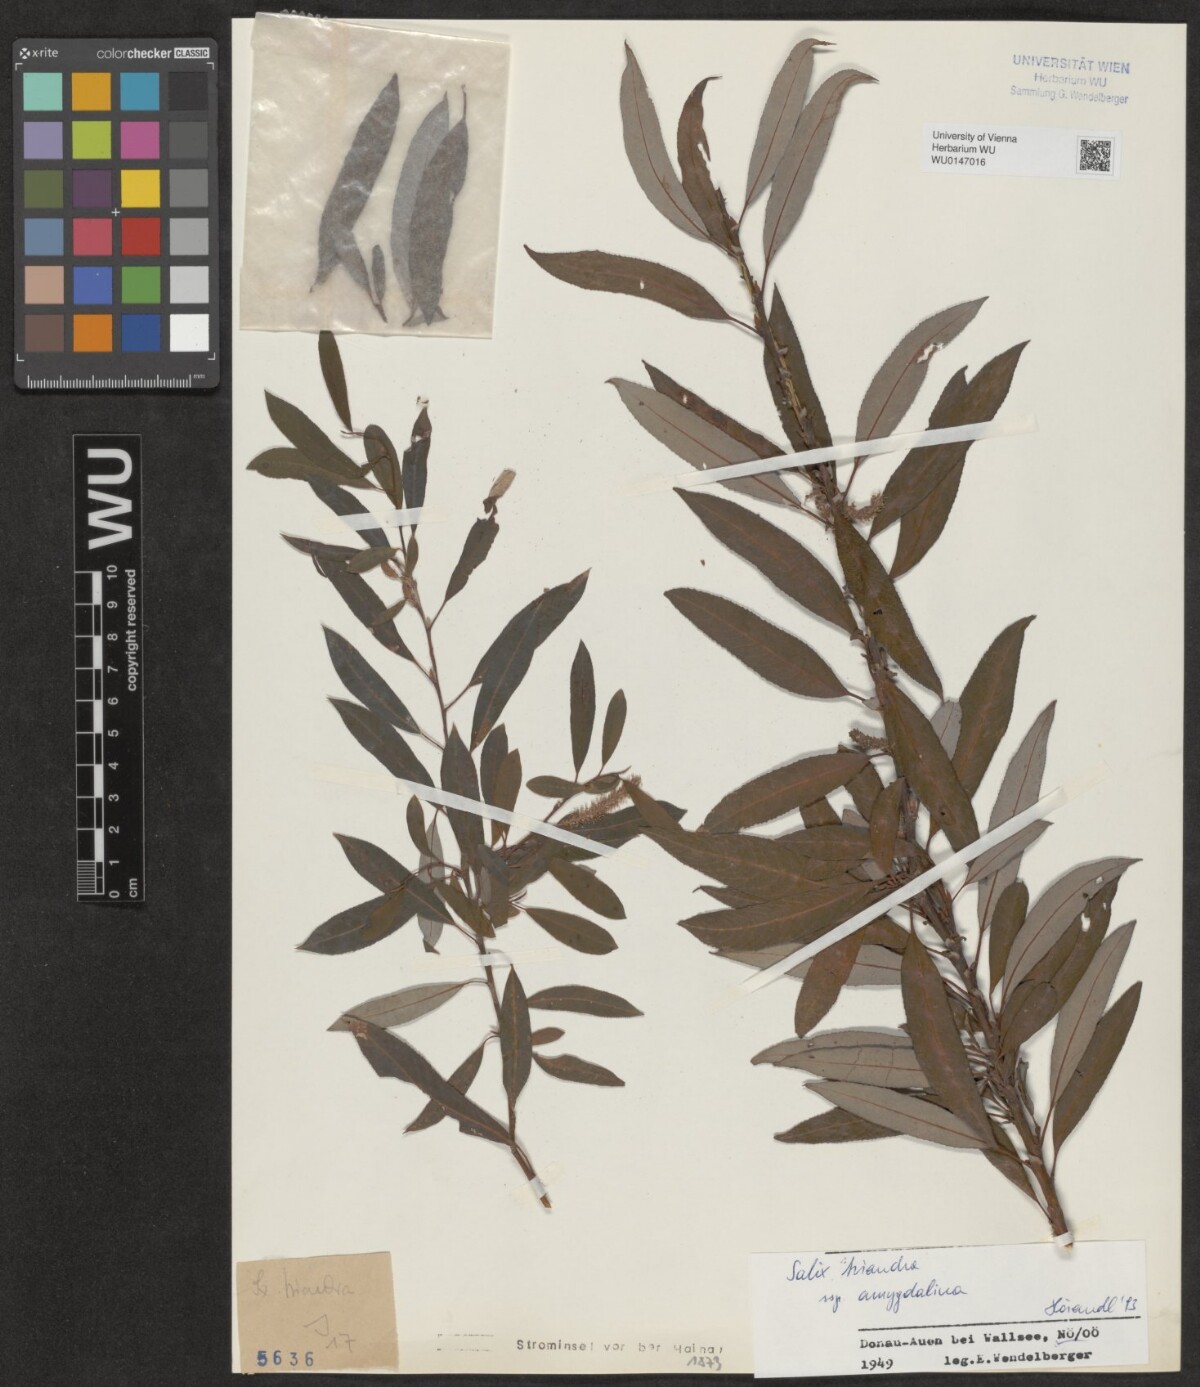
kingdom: Plantae
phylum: Tracheophyta
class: Magnoliopsida
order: Malpighiales
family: Salicaceae
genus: Salix
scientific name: Salix triandra
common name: Almond willow
